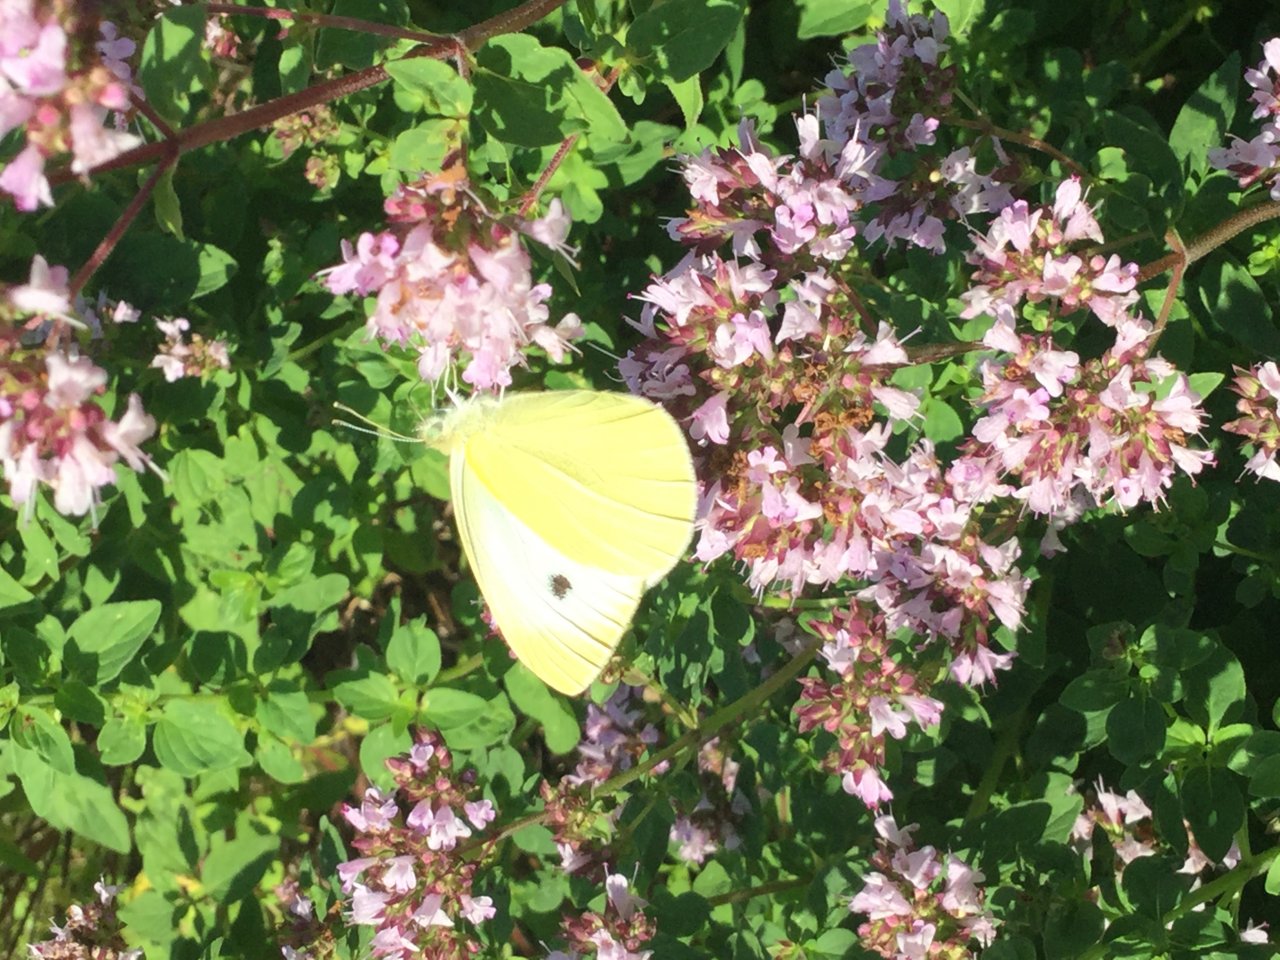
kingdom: Animalia
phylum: Arthropoda
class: Insecta
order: Lepidoptera
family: Pieridae
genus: Pieris
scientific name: Pieris rapae
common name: Cabbage White
